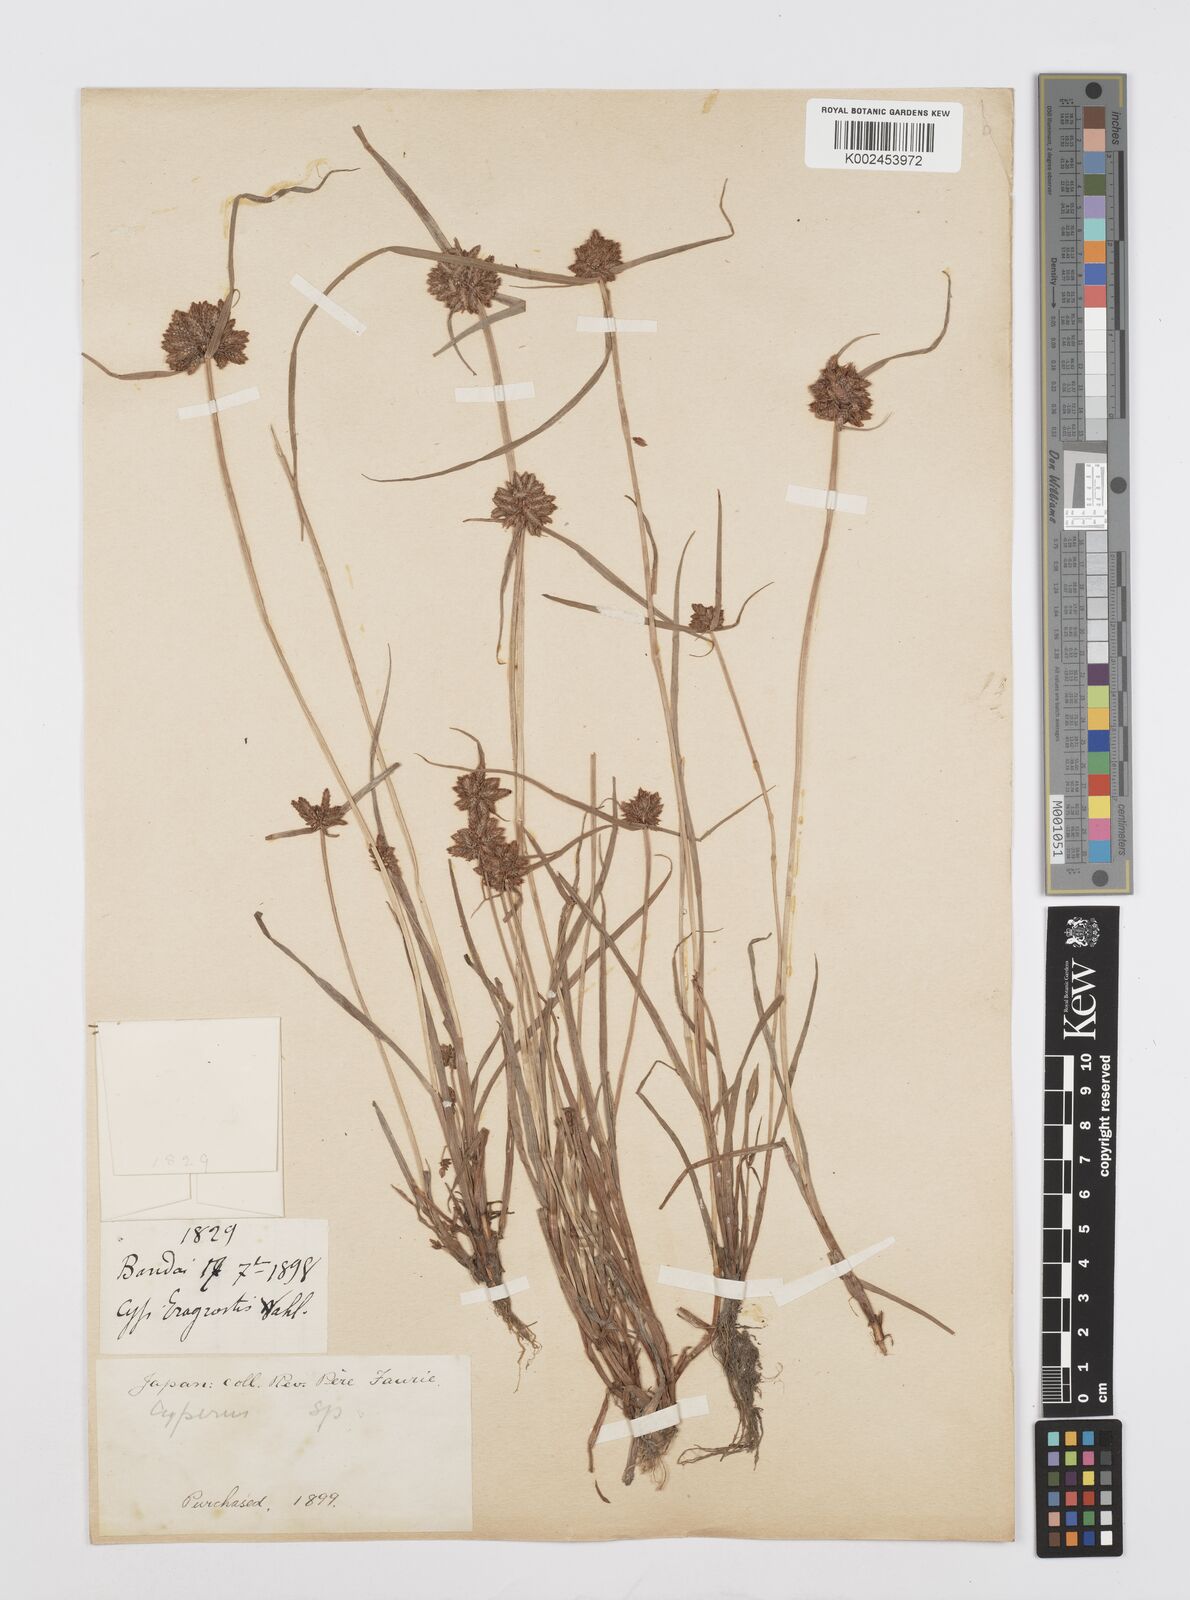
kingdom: Plantae
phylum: Tracheophyta
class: Liliopsida
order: Poales
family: Cyperaceae
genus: Cyperus
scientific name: Cyperus sanguinolentus
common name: Purpleglume flatsedge
